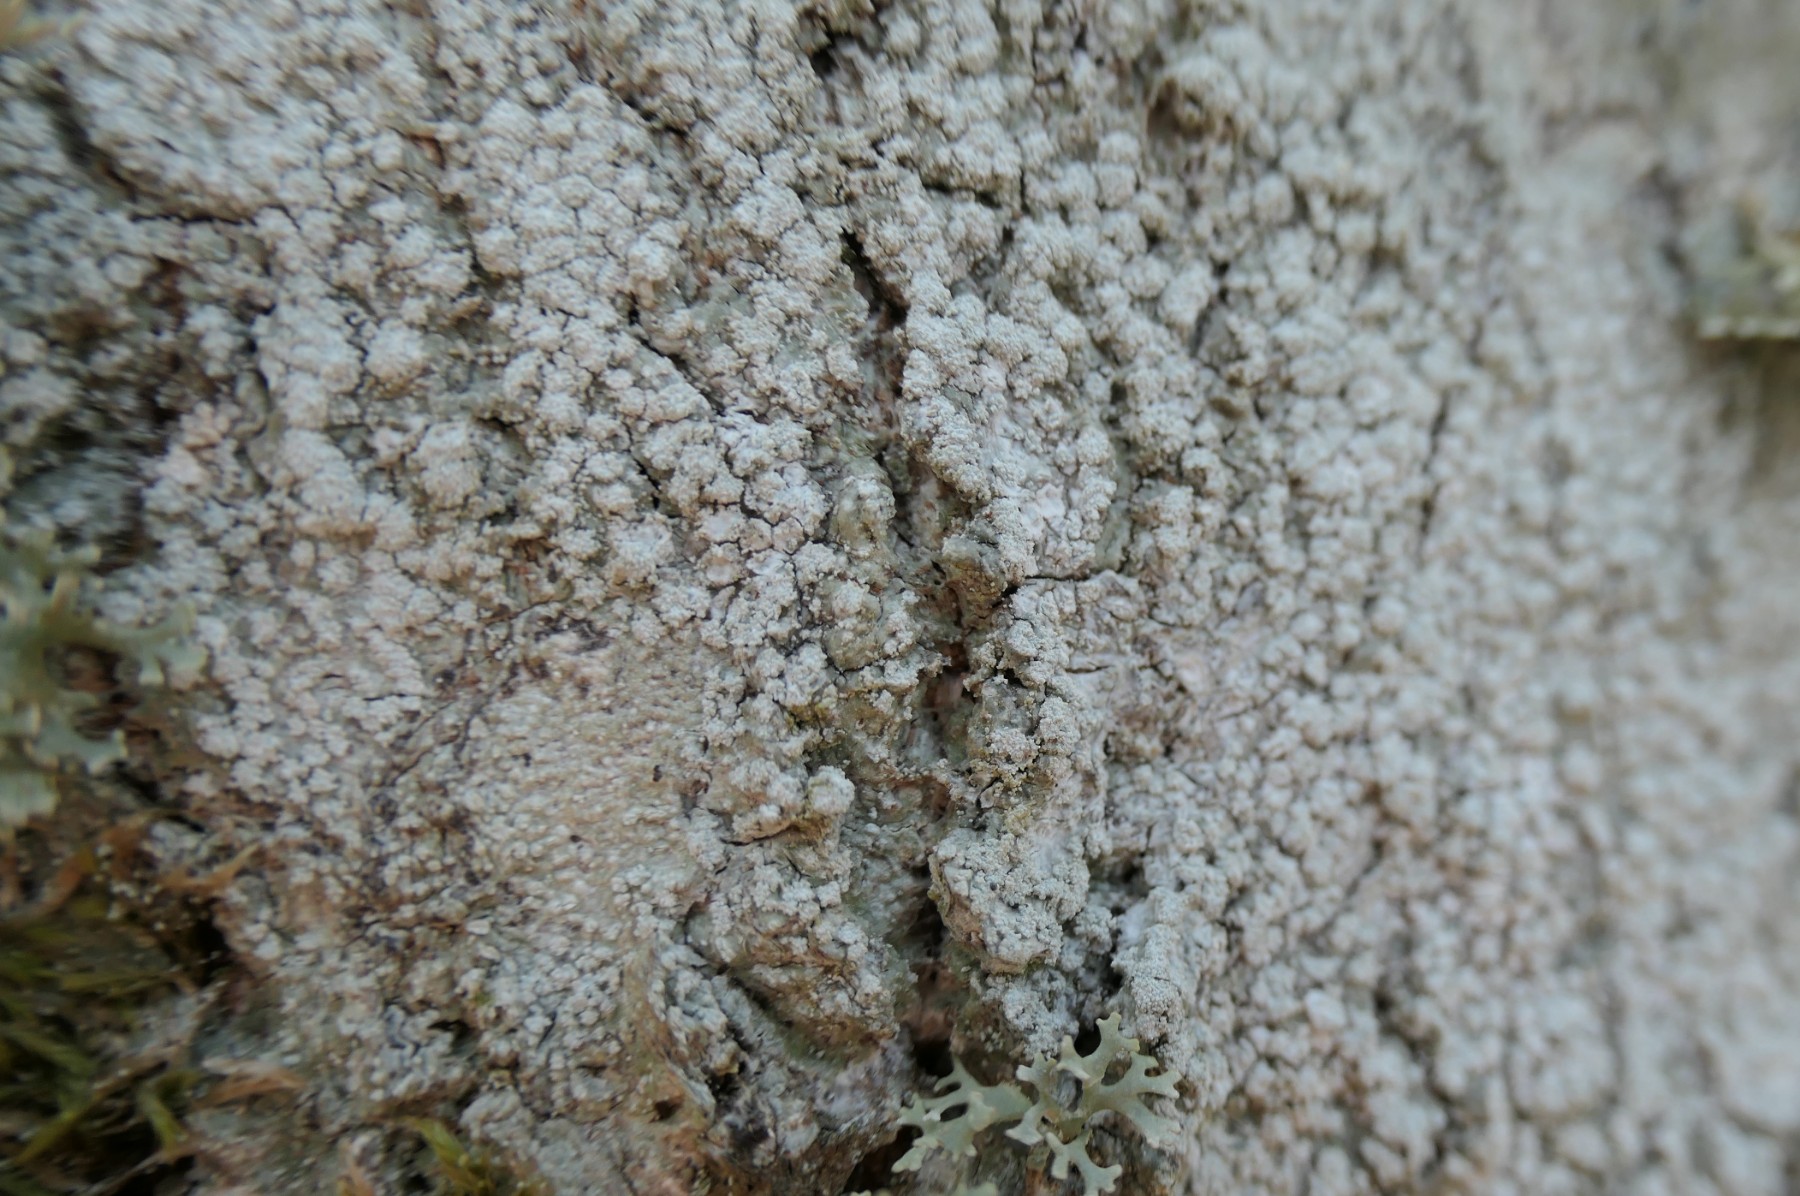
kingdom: Fungi
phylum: Ascomycota
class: Lecanoromycetes
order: Pertusariales
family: Pertusariaceae
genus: Lepra
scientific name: Lepra amara
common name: bitter prikvortelav
